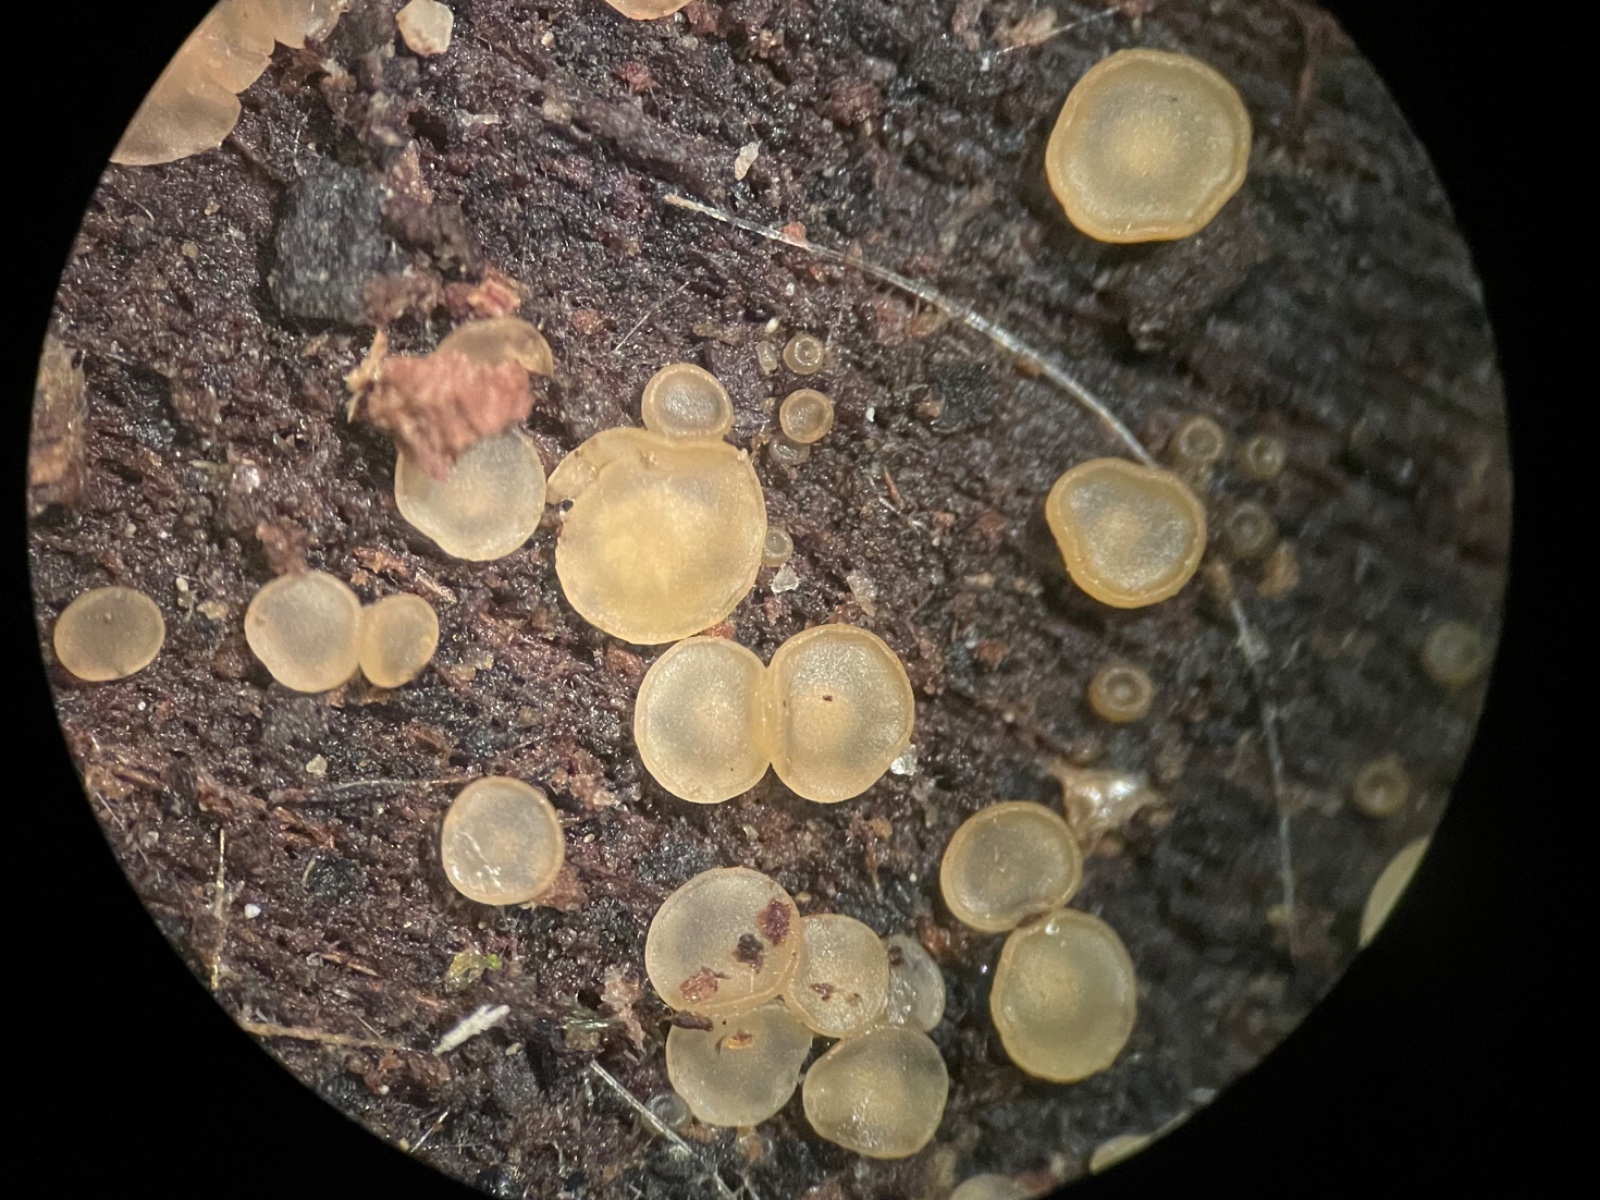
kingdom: Fungi
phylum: Ascomycota
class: Orbiliomycetes
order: Orbiliales
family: Orbiliaceae
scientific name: Orbiliaceae
